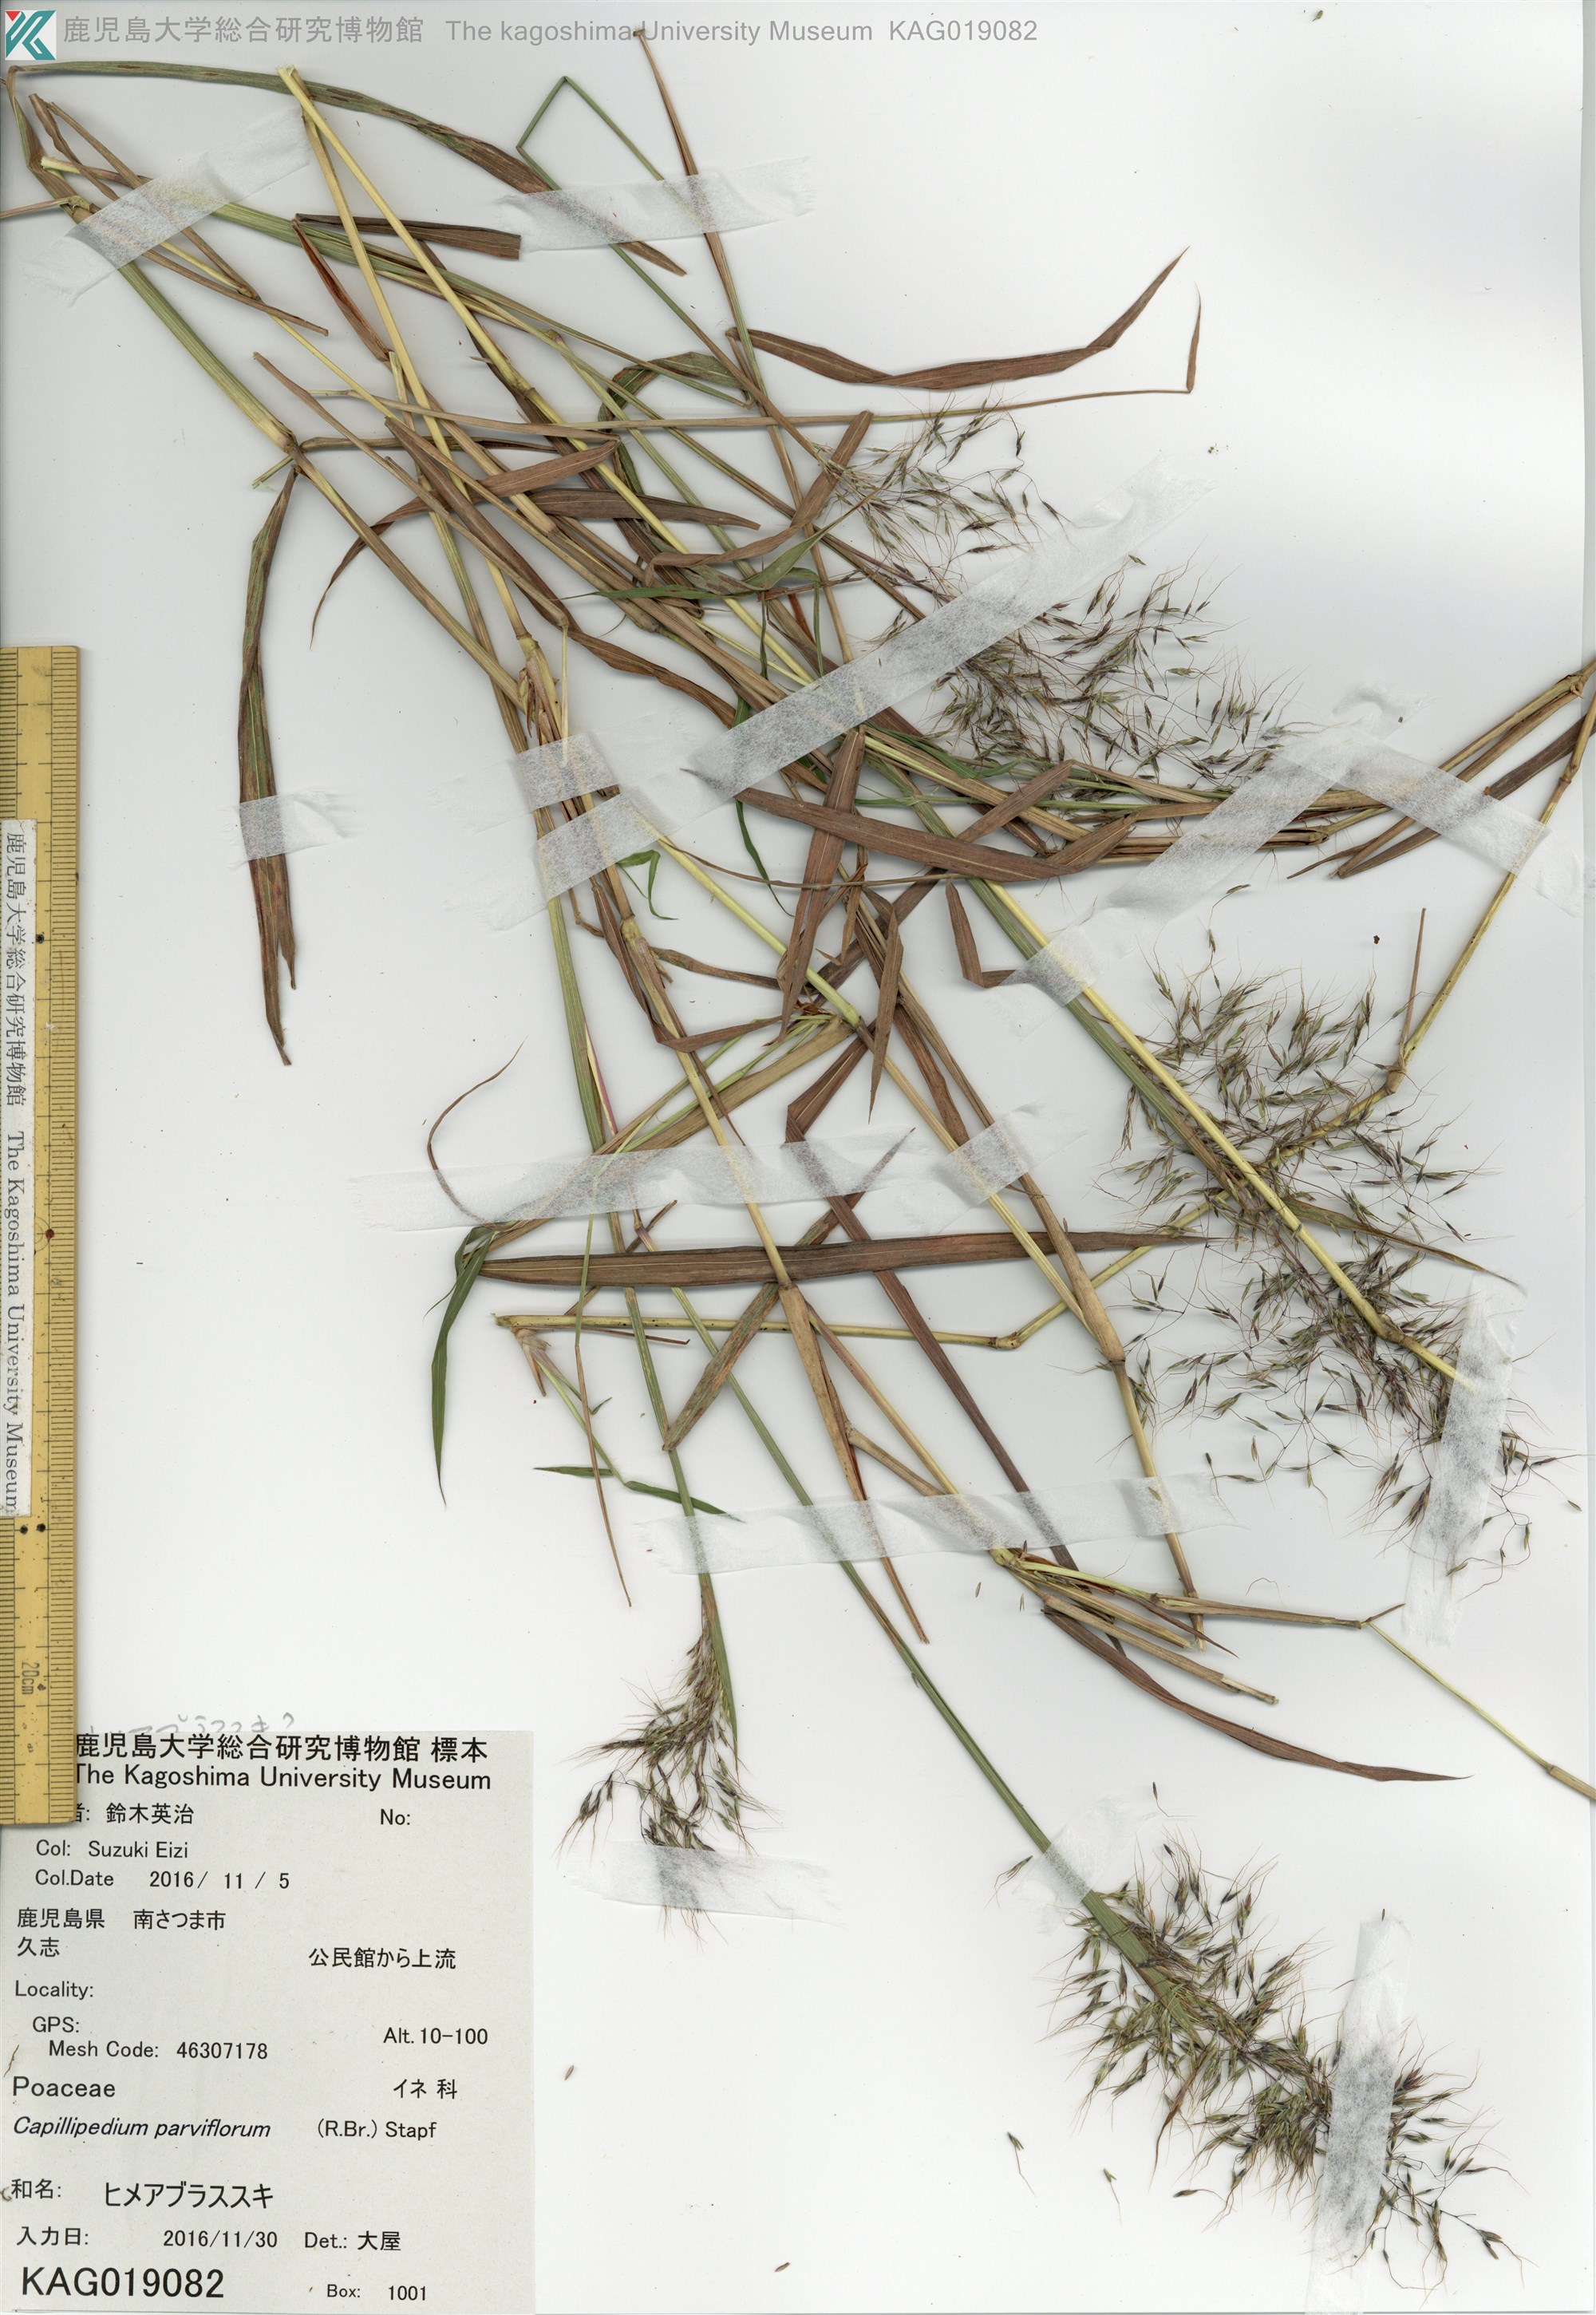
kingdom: Plantae
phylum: Tracheophyta
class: Liliopsida
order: Poales
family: Poaceae
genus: Capillipedium
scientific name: Capillipedium parviflorum
